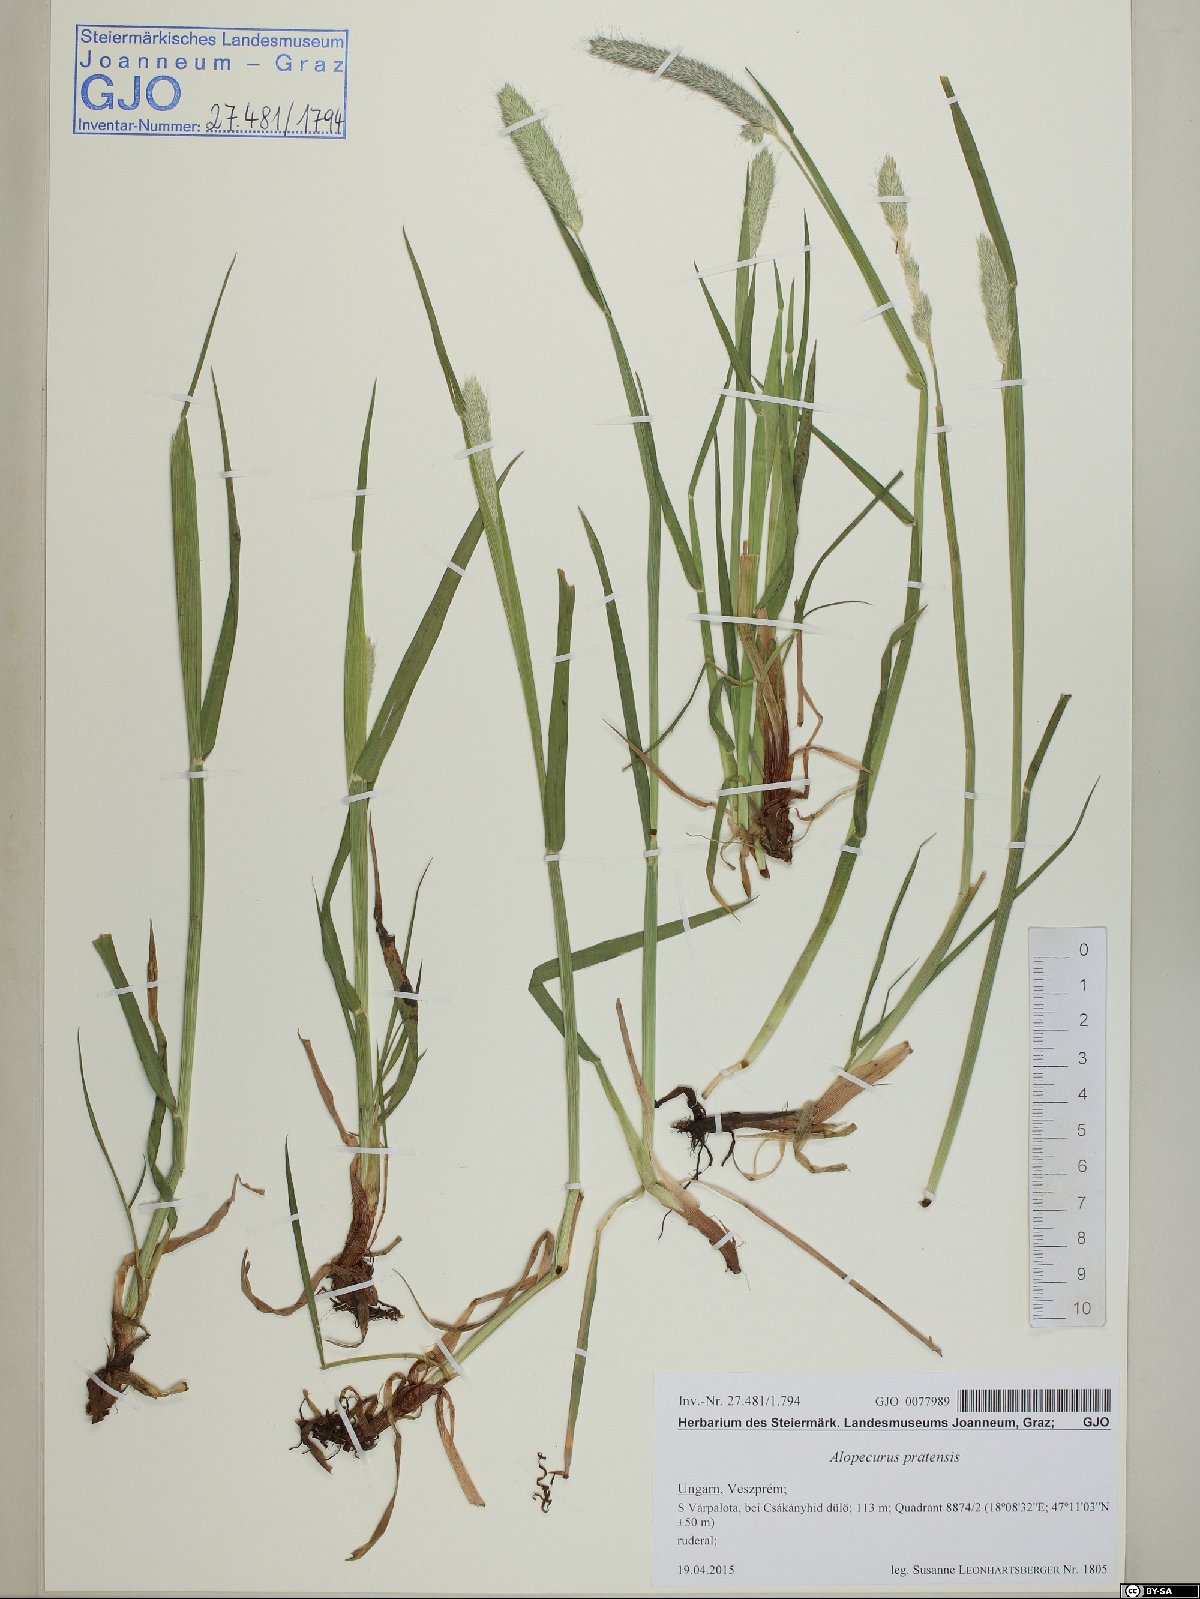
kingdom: Plantae
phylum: Tracheophyta
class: Liliopsida
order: Poales
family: Poaceae
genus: Alopecurus
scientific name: Alopecurus pratensis
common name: Meadow foxtail
